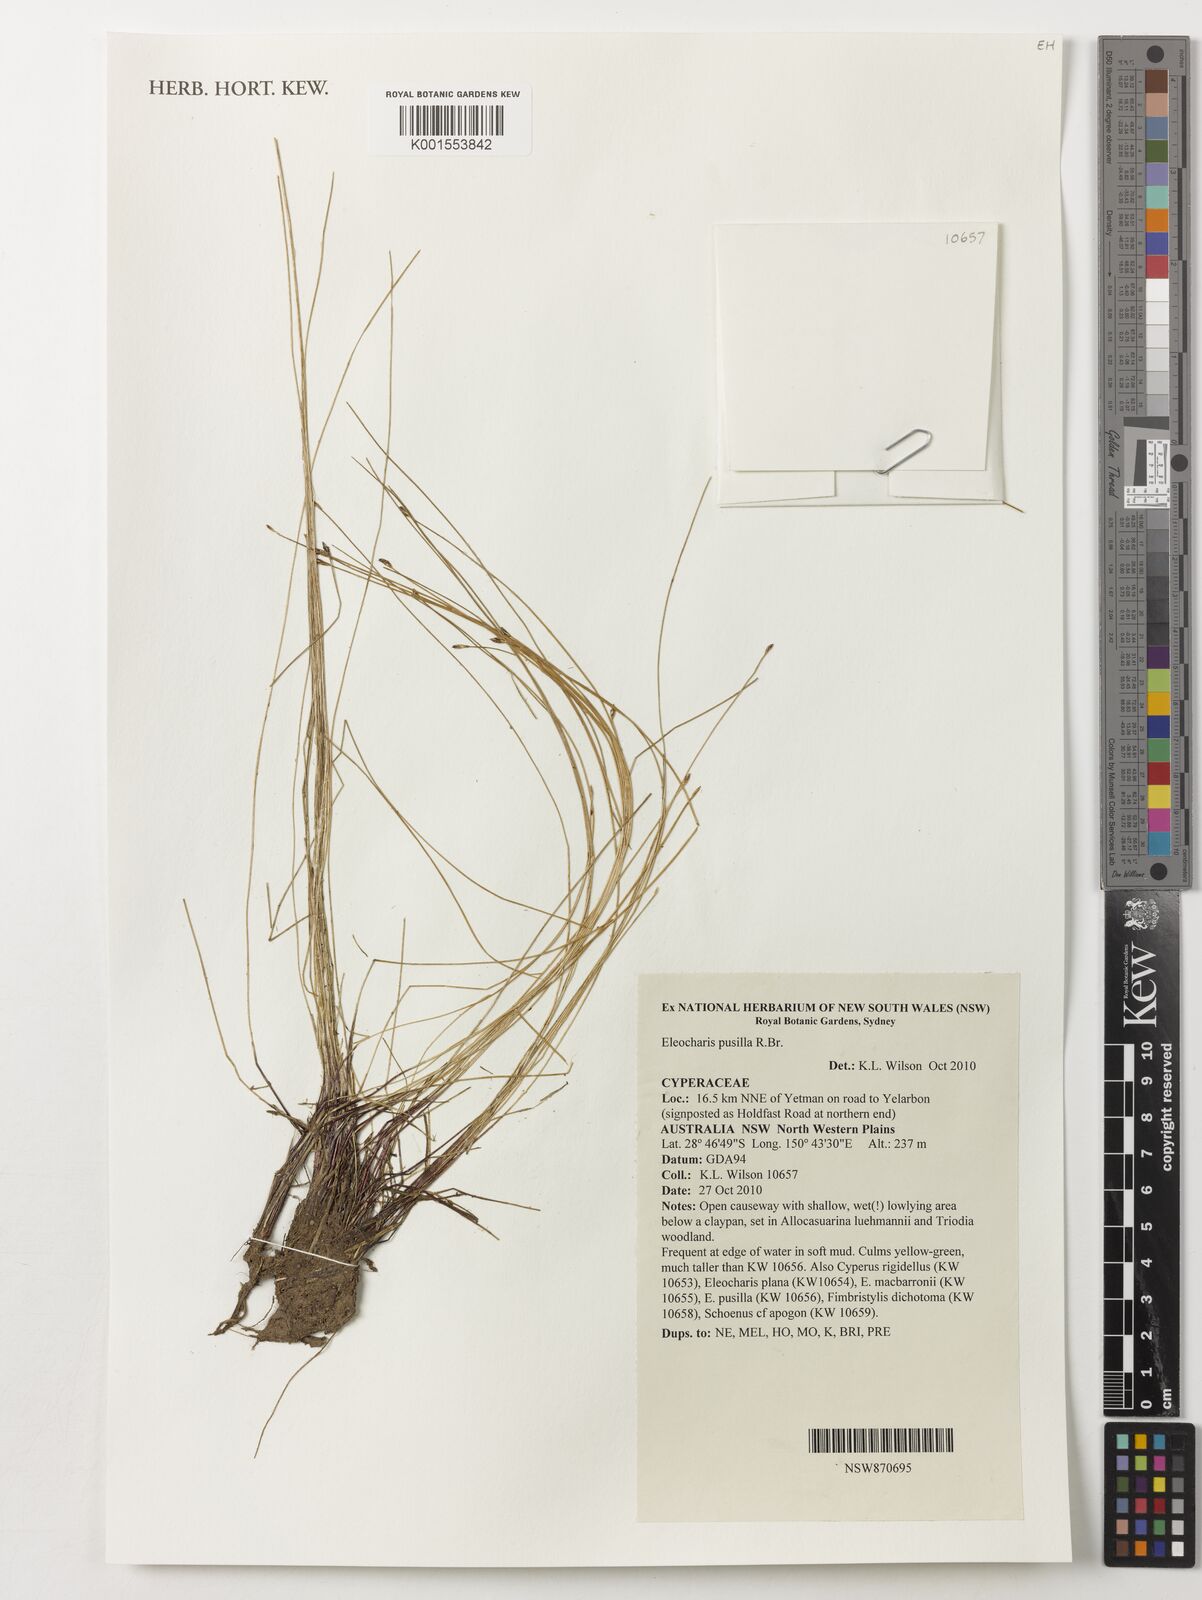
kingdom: Plantae
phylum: Tracheophyta
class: Liliopsida
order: Poales
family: Cyperaceae
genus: Eleocharis
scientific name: Eleocharis pusilla
